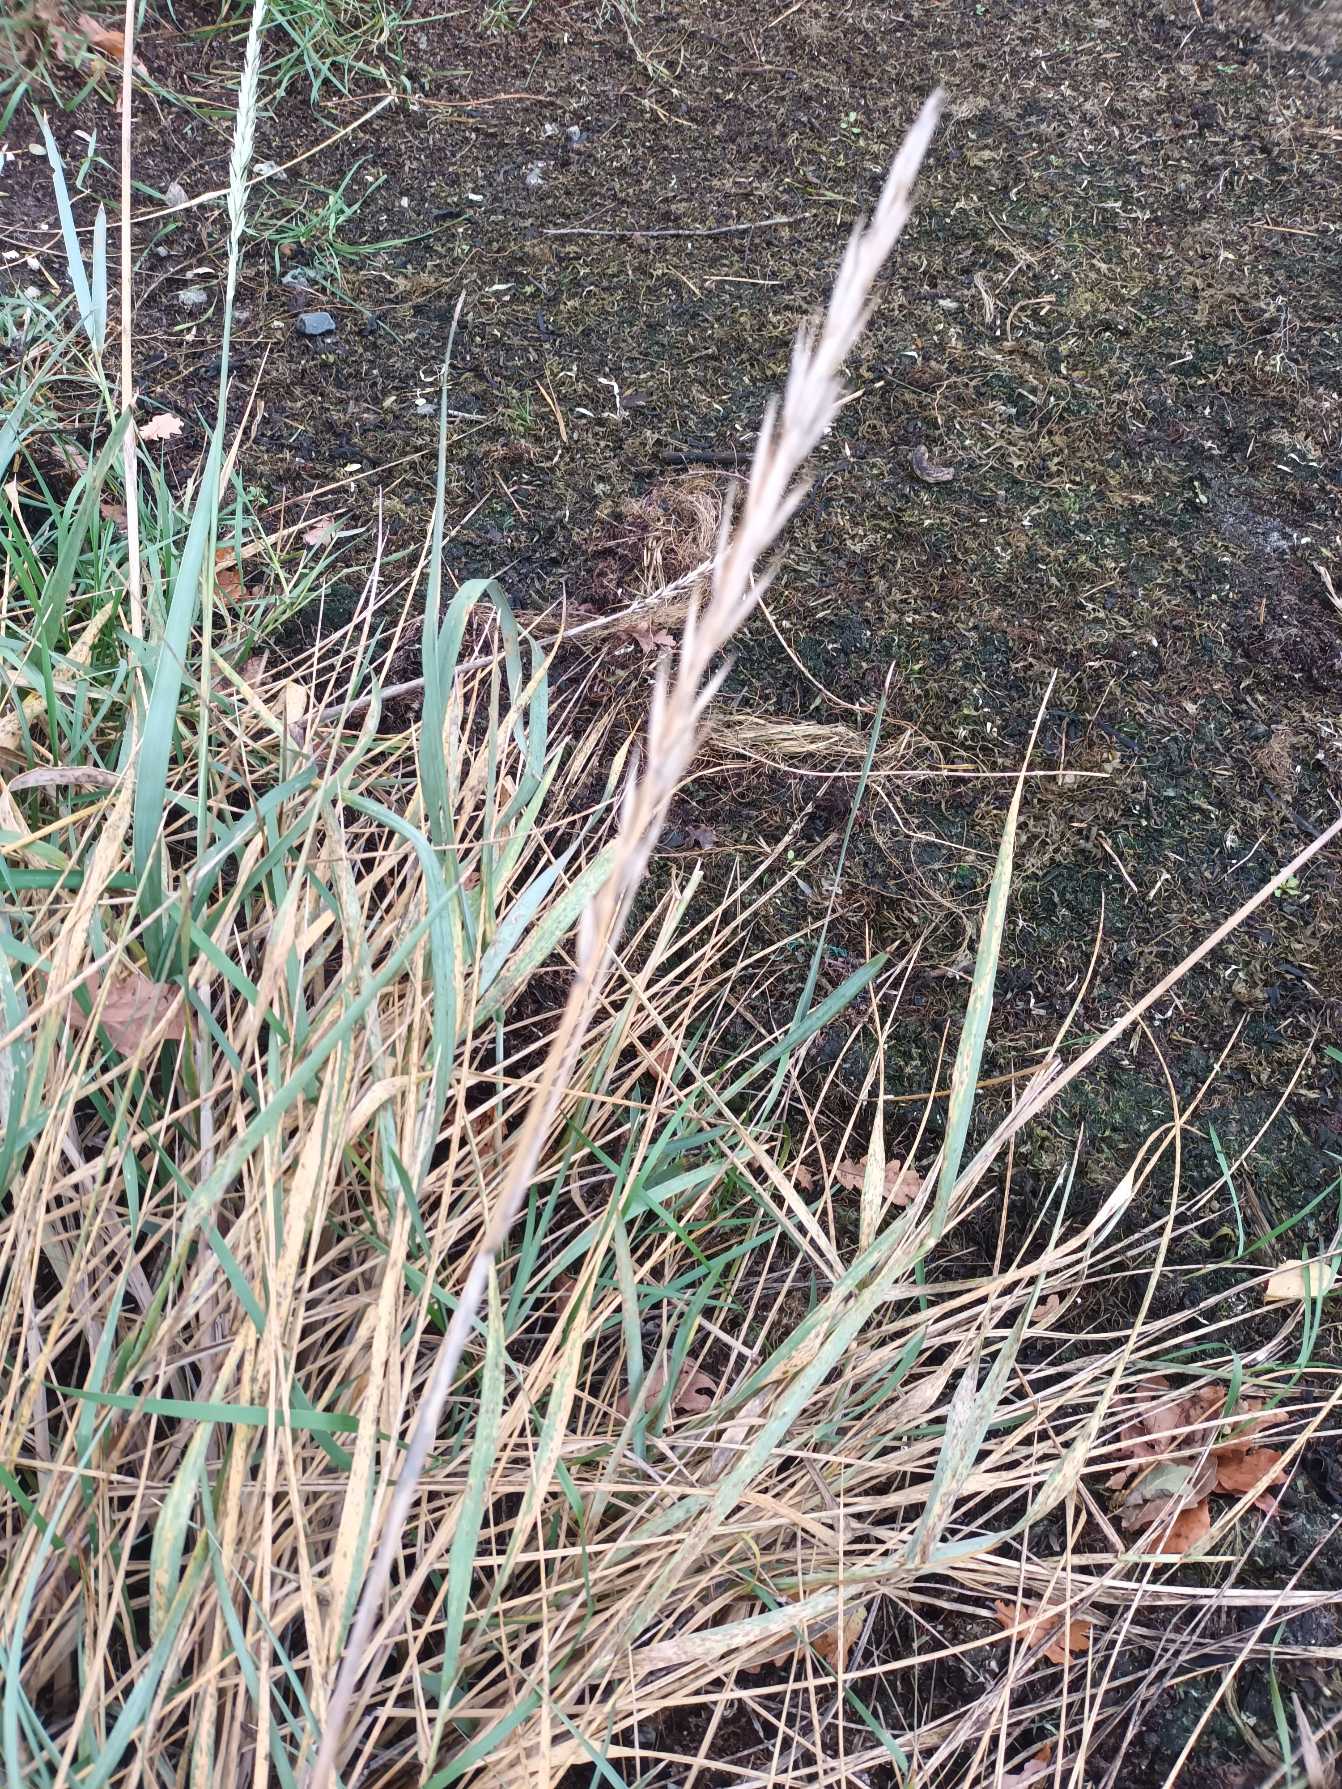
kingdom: Plantae
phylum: Tracheophyta
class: Liliopsida
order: Poales
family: Poaceae
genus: Leymus
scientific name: Leymus arenarius
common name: Marehalm
